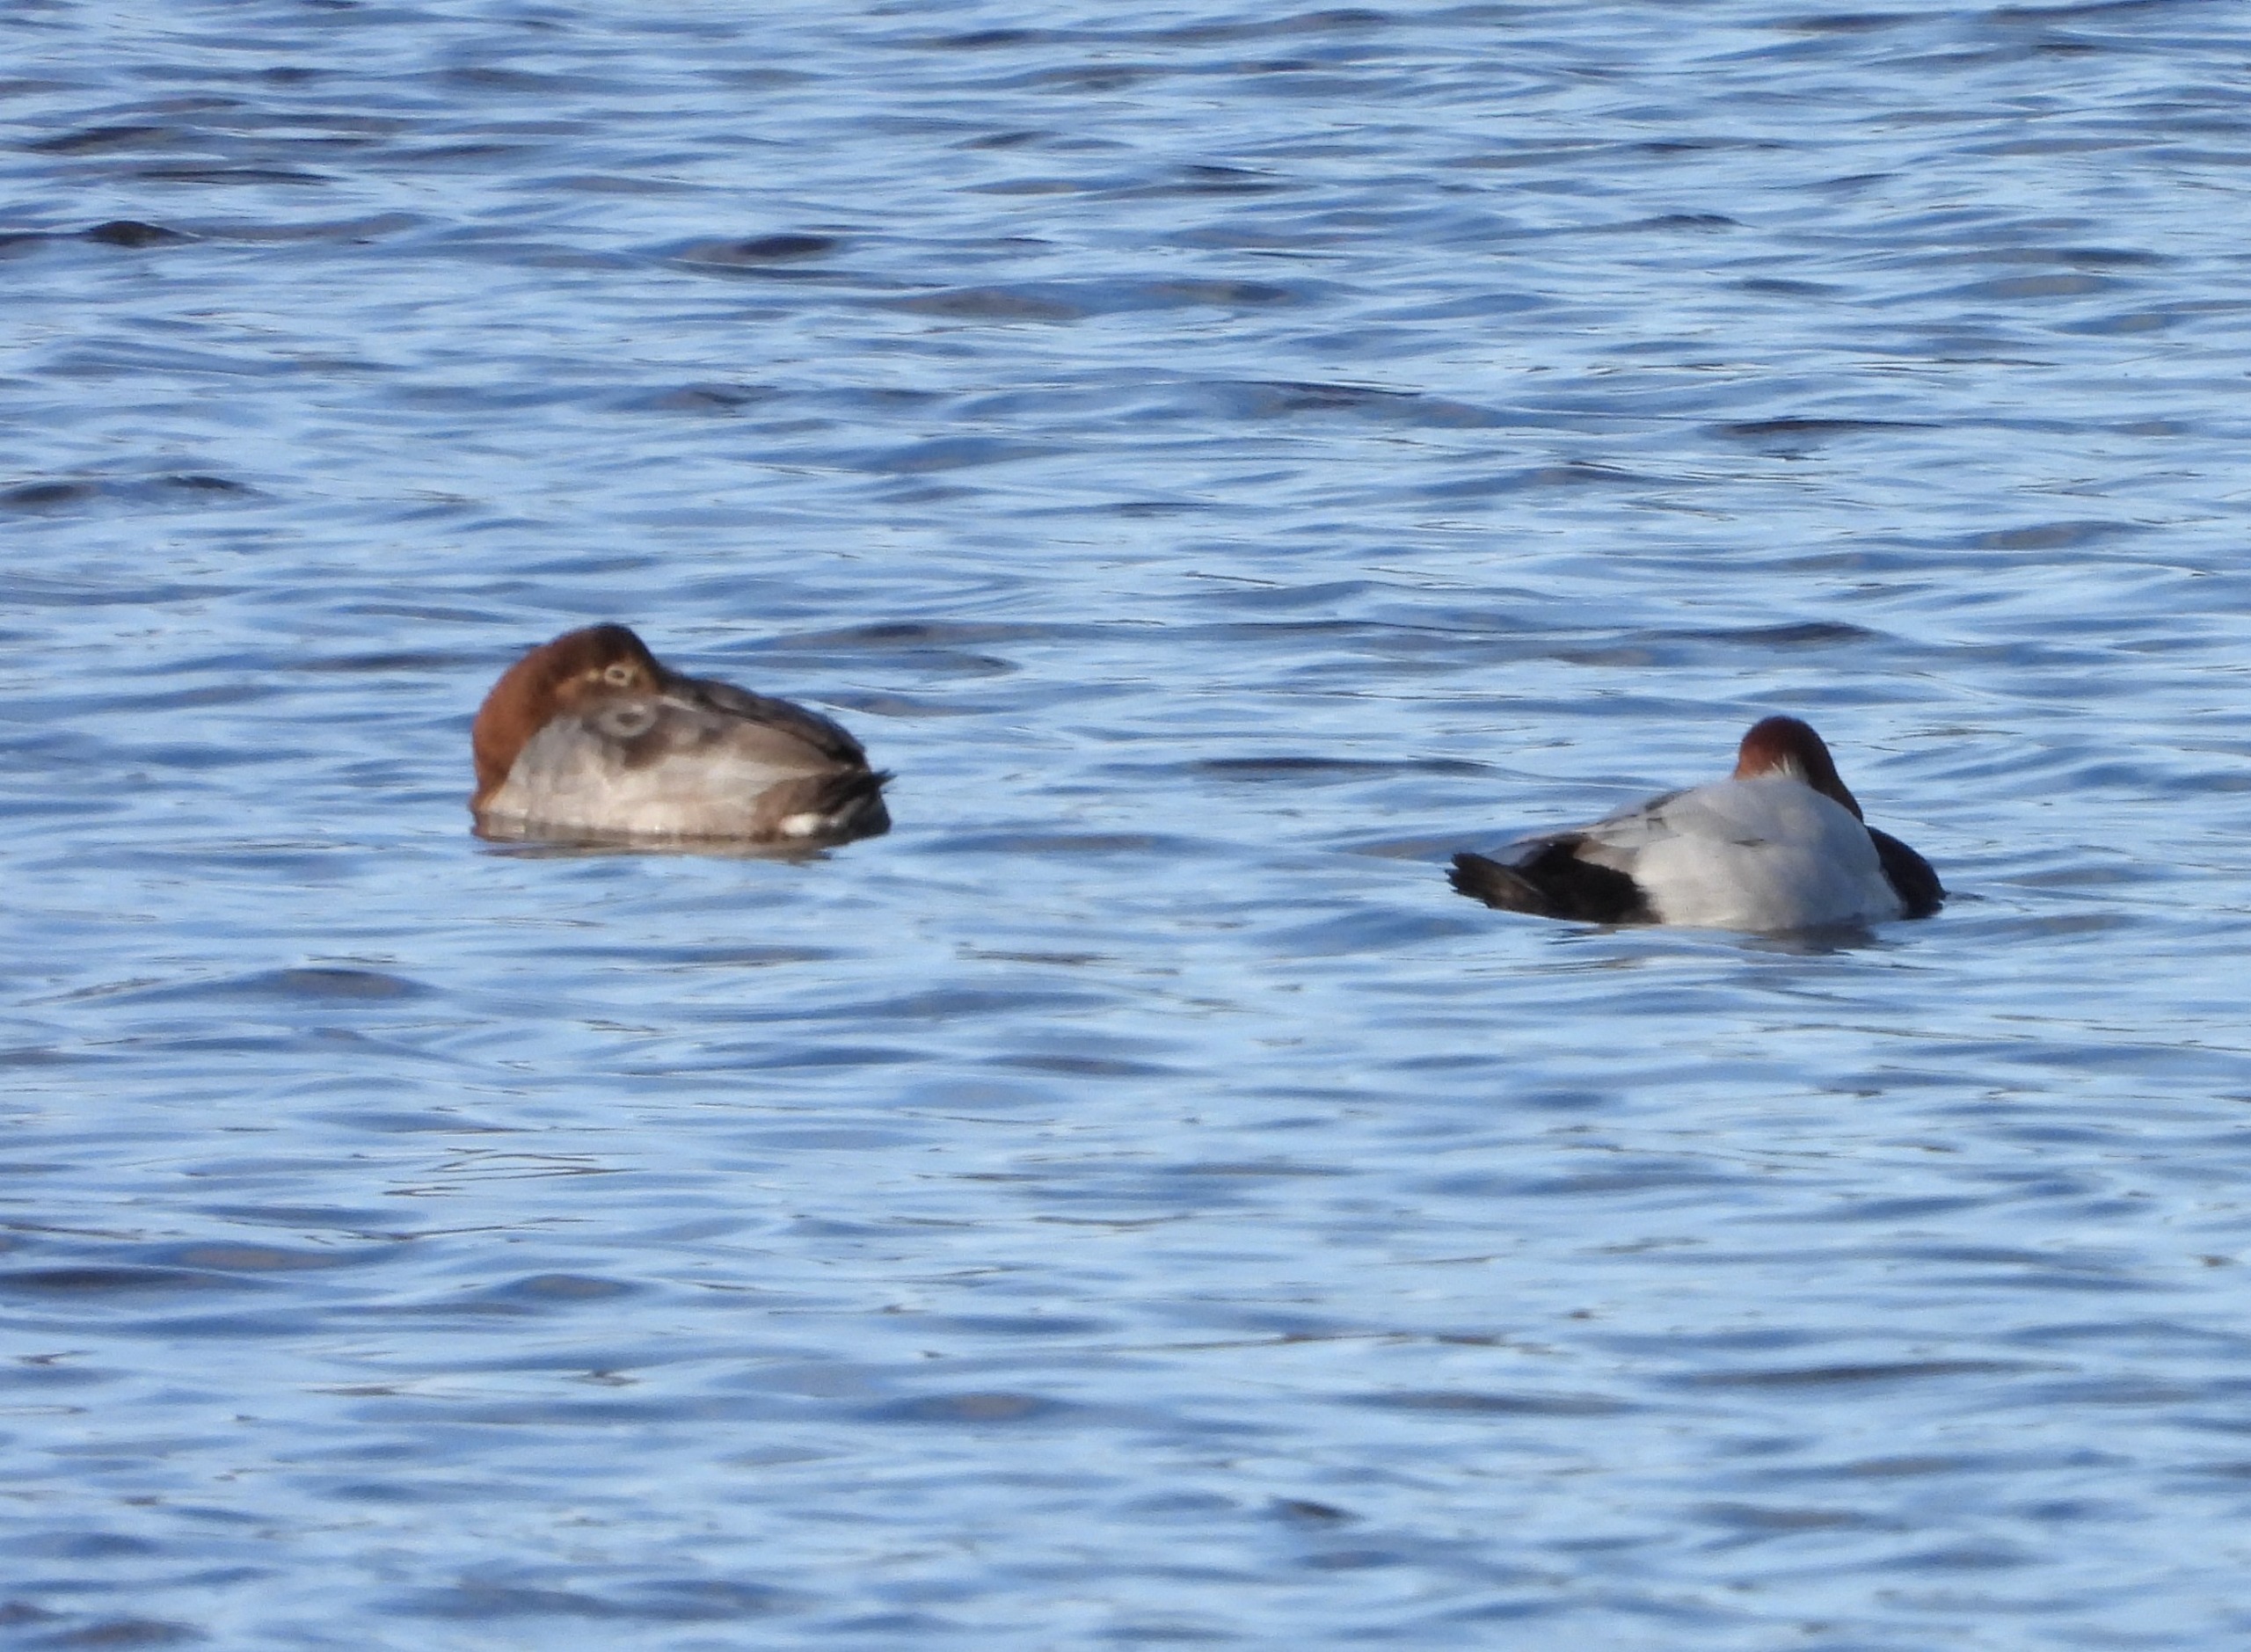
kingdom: Animalia
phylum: Chordata
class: Aves
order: Anseriformes
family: Anatidae
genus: Aythya
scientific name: Aythya ferina
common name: Taffeland
